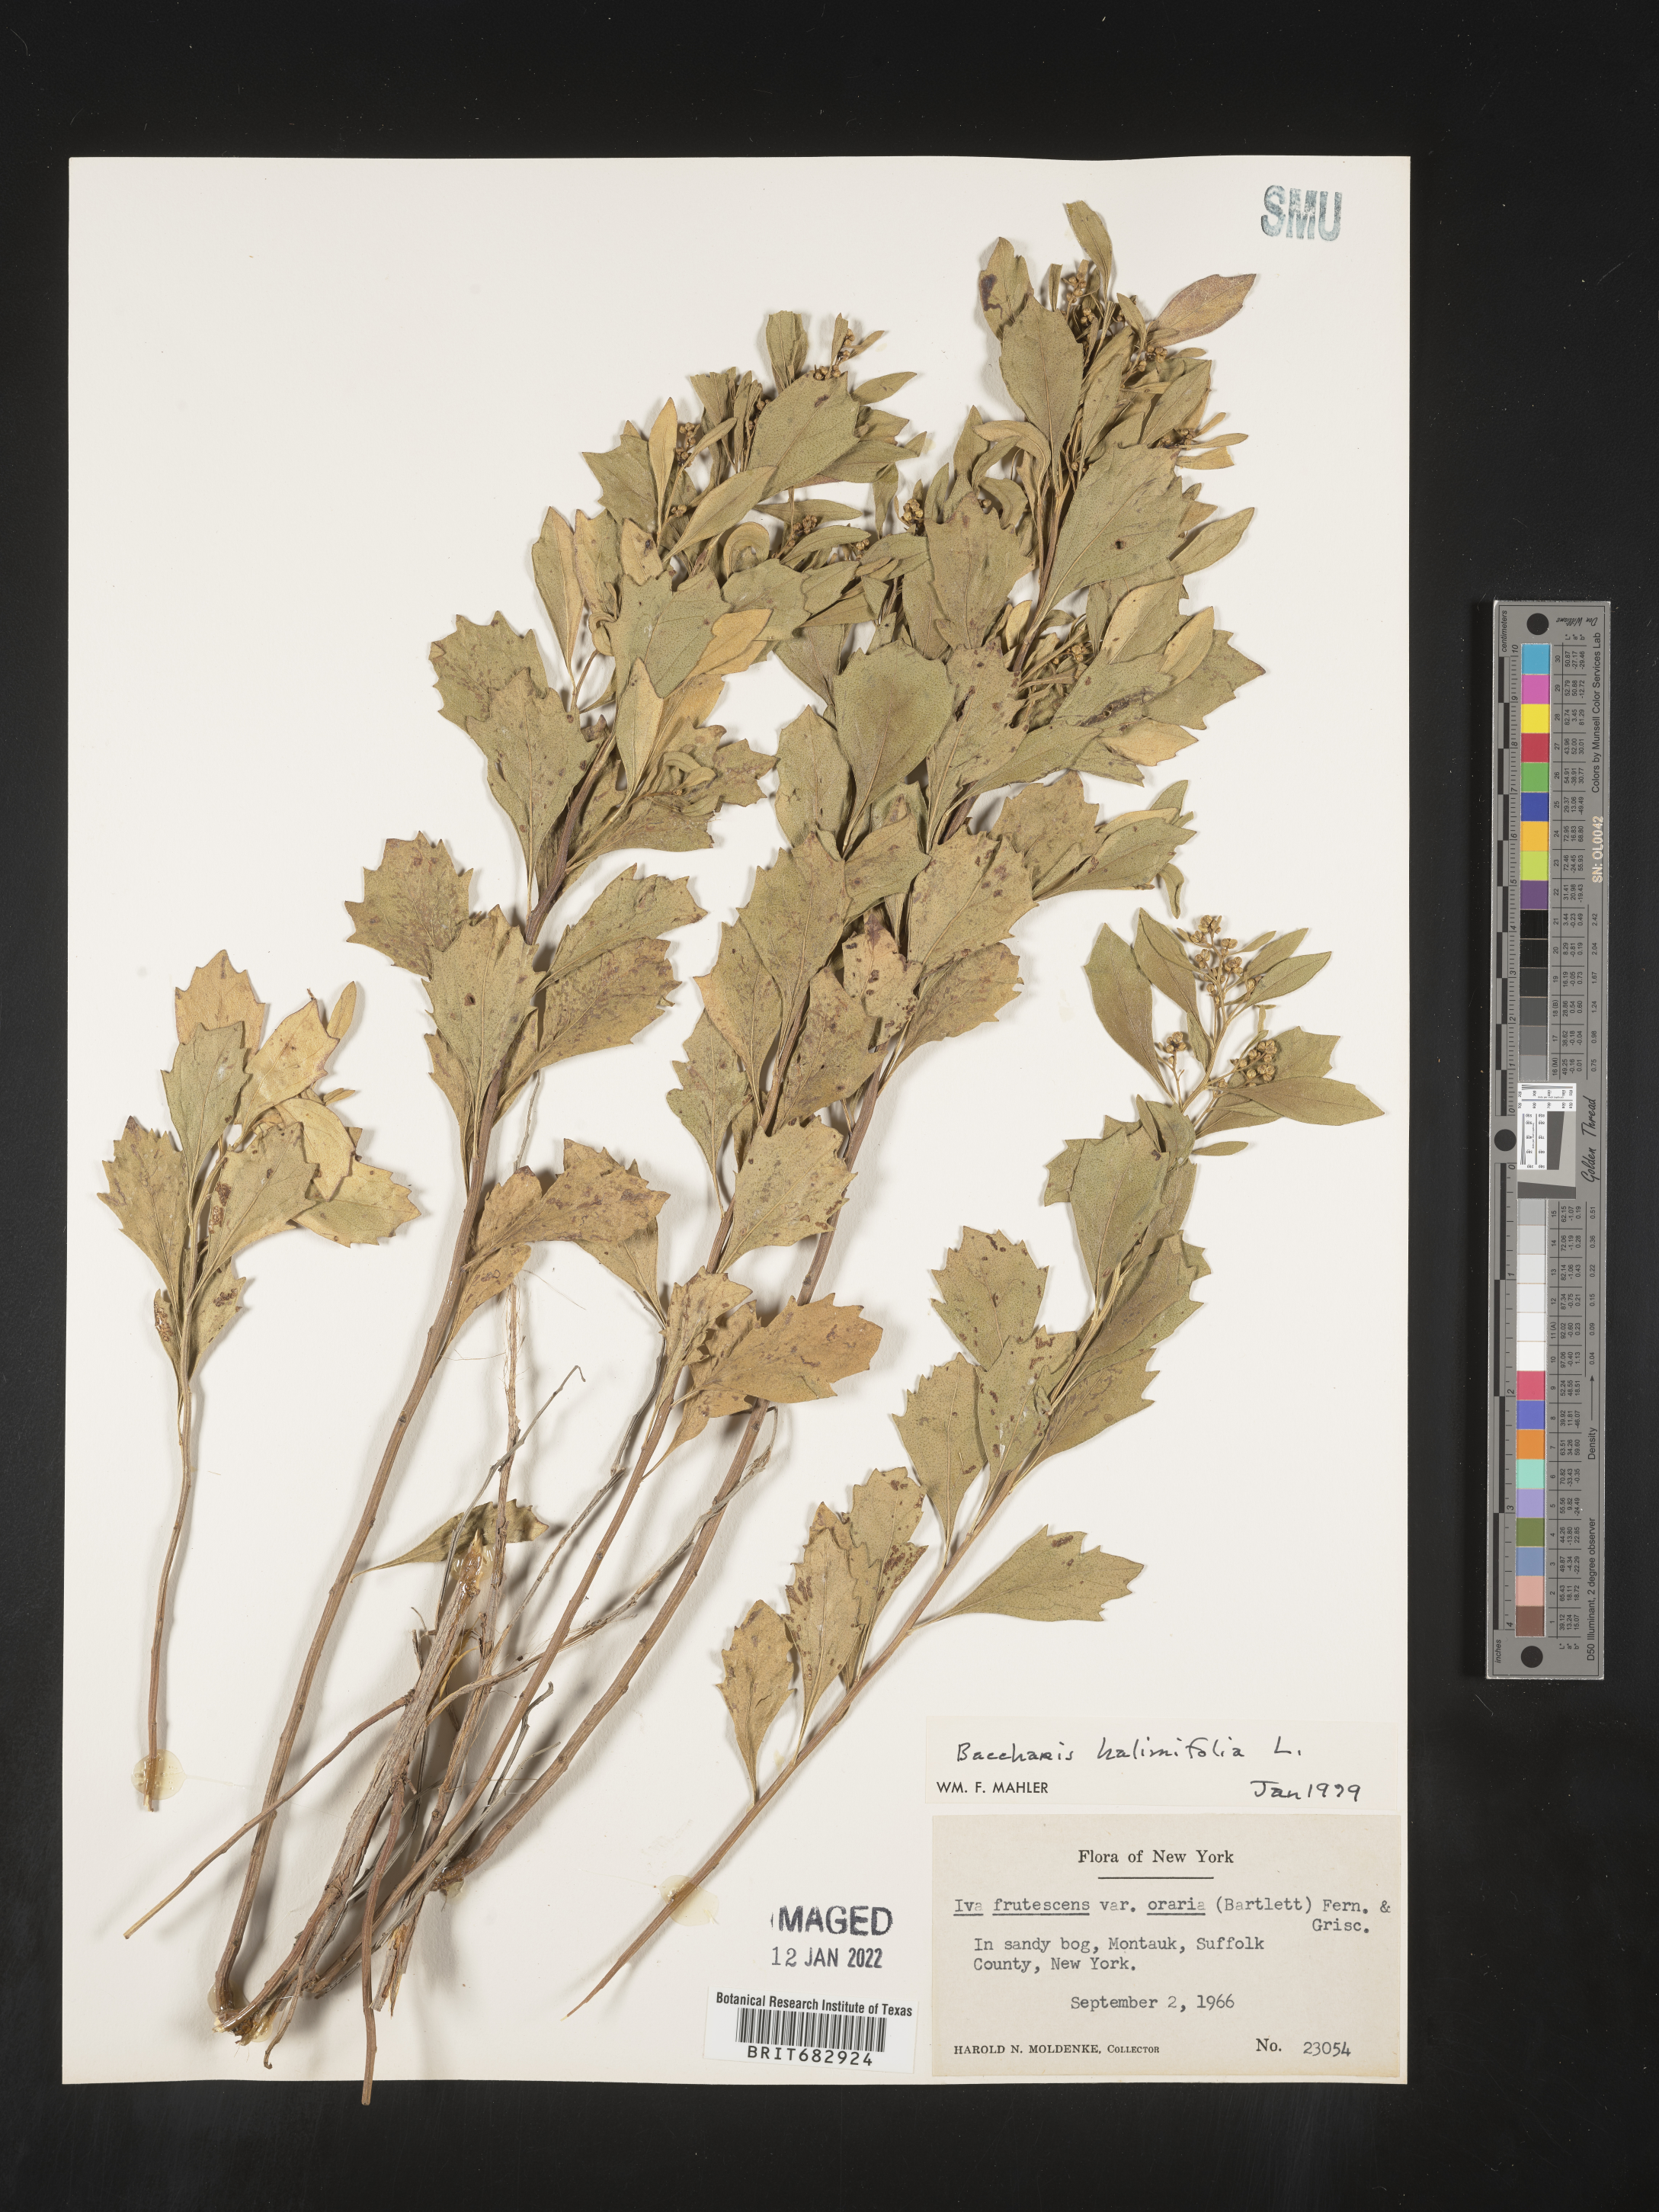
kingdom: Plantae
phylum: Tracheophyta
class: Magnoliopsida
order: Asterales
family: Asteraceae
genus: Nidorella
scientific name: Nidorella ivifolia
